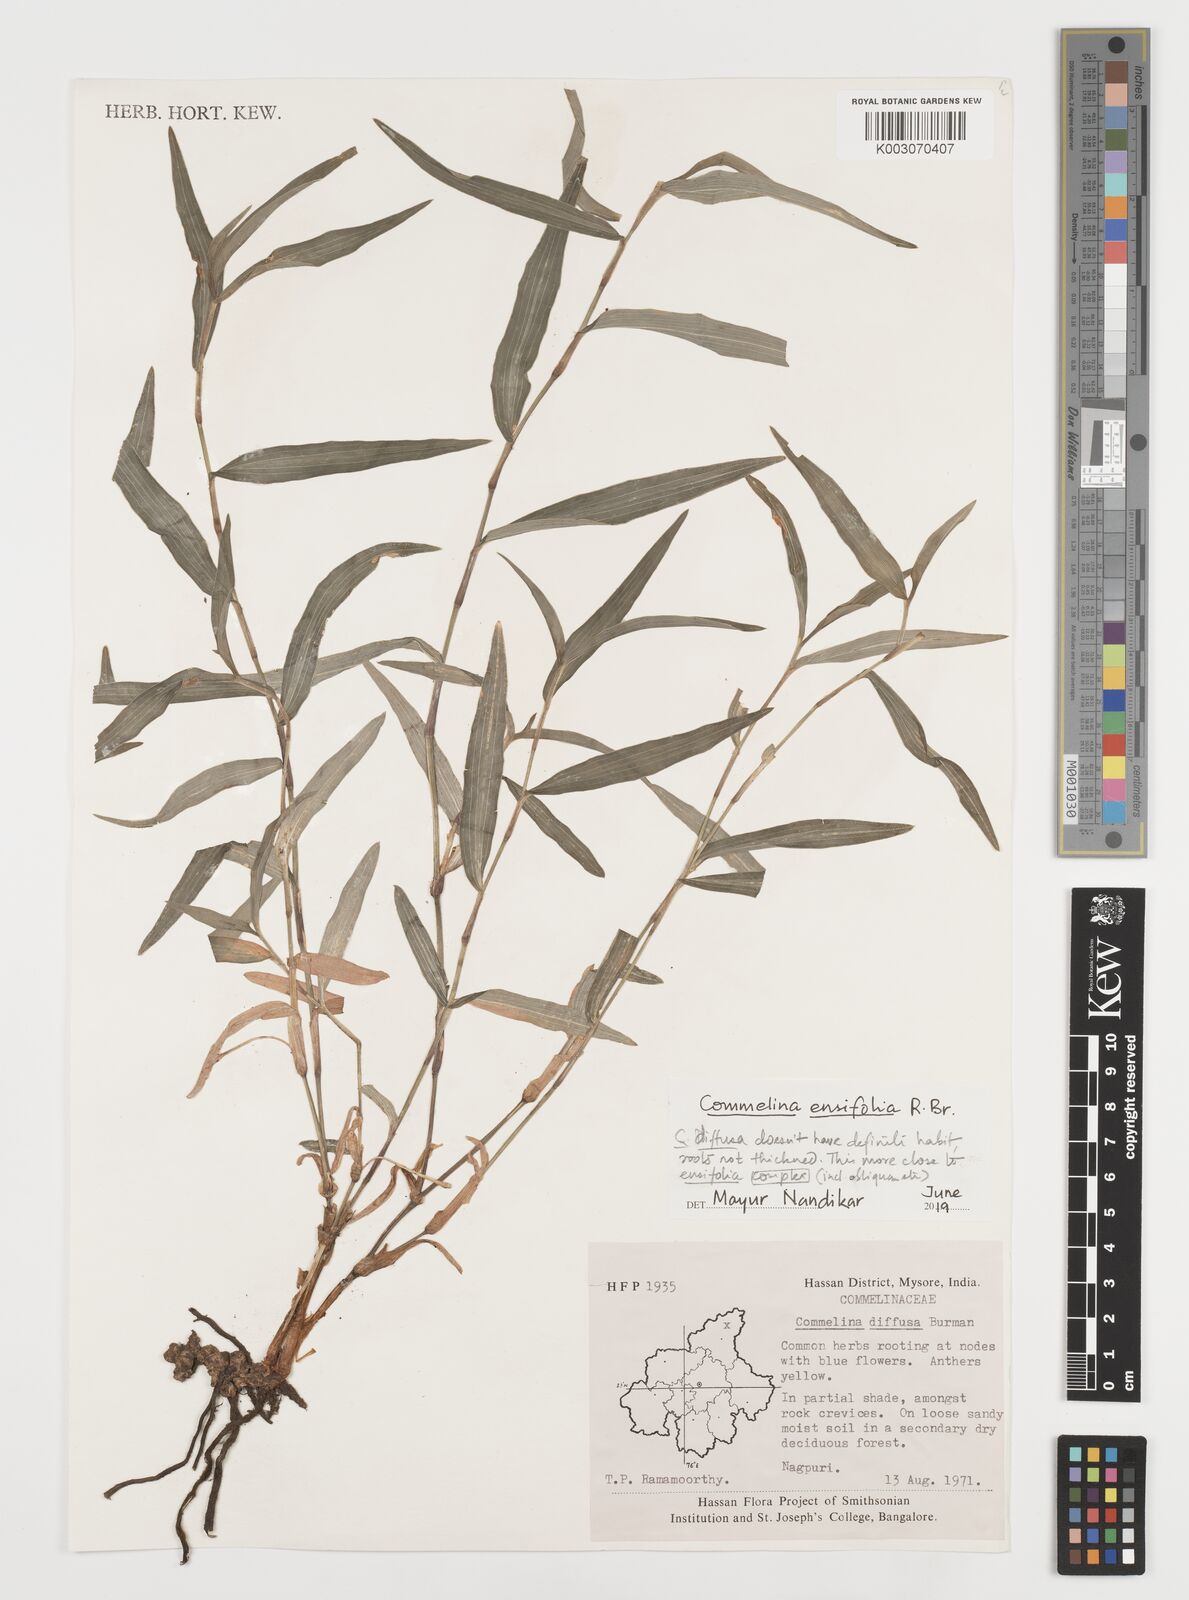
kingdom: Plantae
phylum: Tracheophyta
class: Liliopsida
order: Commelinales
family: Commelinaceae
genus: Commelina
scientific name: Commelina ensifolia
